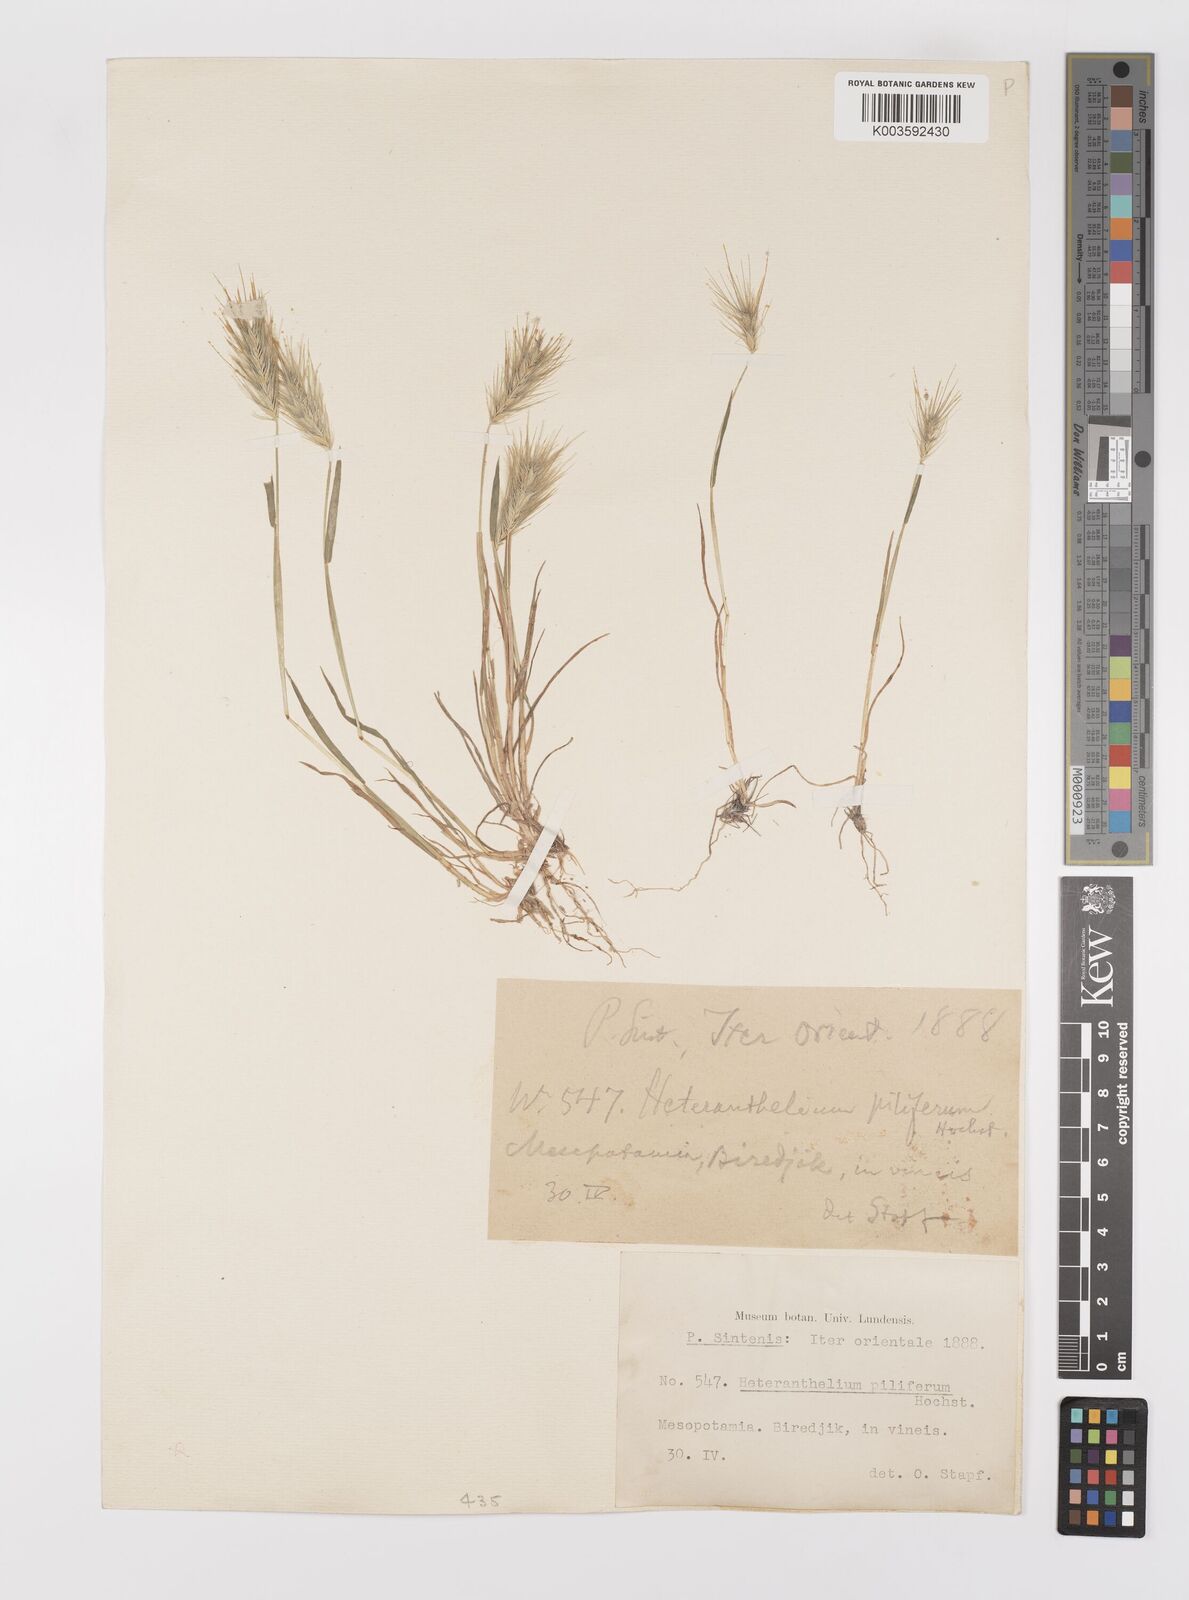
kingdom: Plantae
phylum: Tracheophyta
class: Liliopsida
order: Poales
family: Poaceae
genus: Heteranthelium
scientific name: Heteranthelium piliferum
